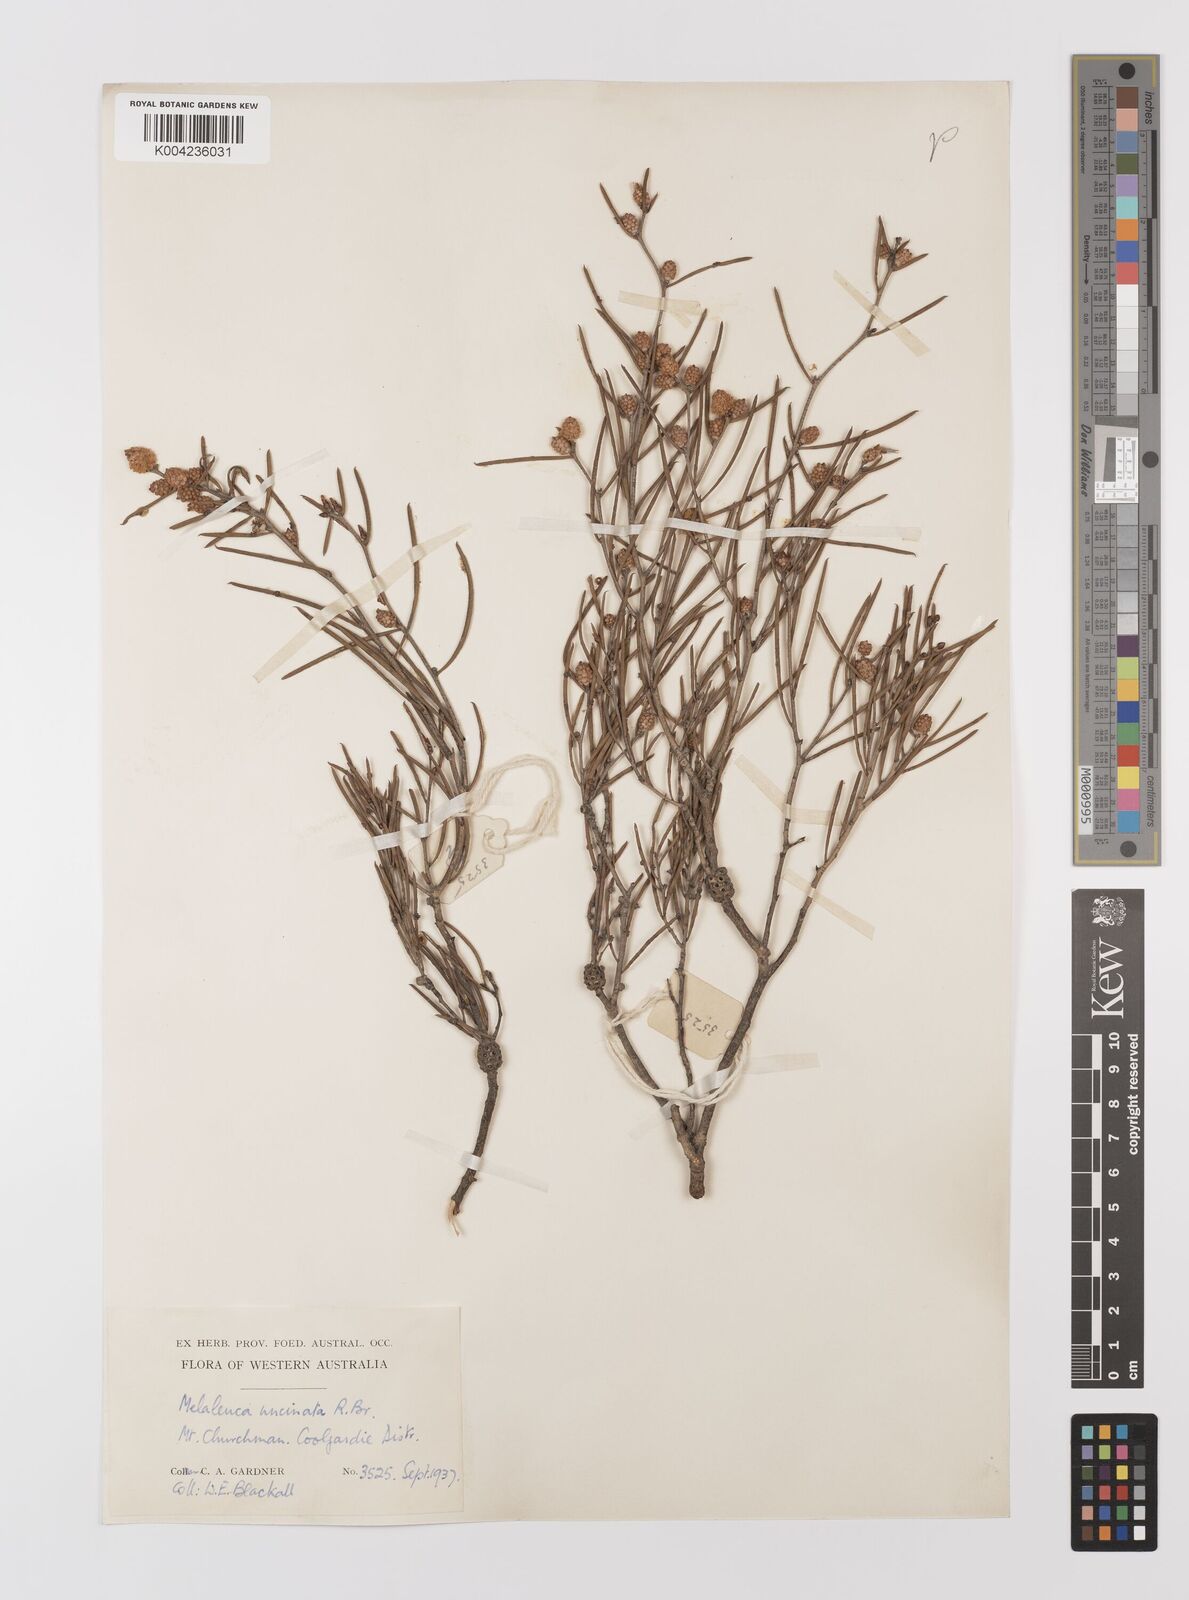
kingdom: Plantae
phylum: Tracheophyta
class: Magnoliopsida
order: Myrtales
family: Myrtaceae
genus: Melaleuca
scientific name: Melaleuca uncinata
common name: Broom honey myrtle
